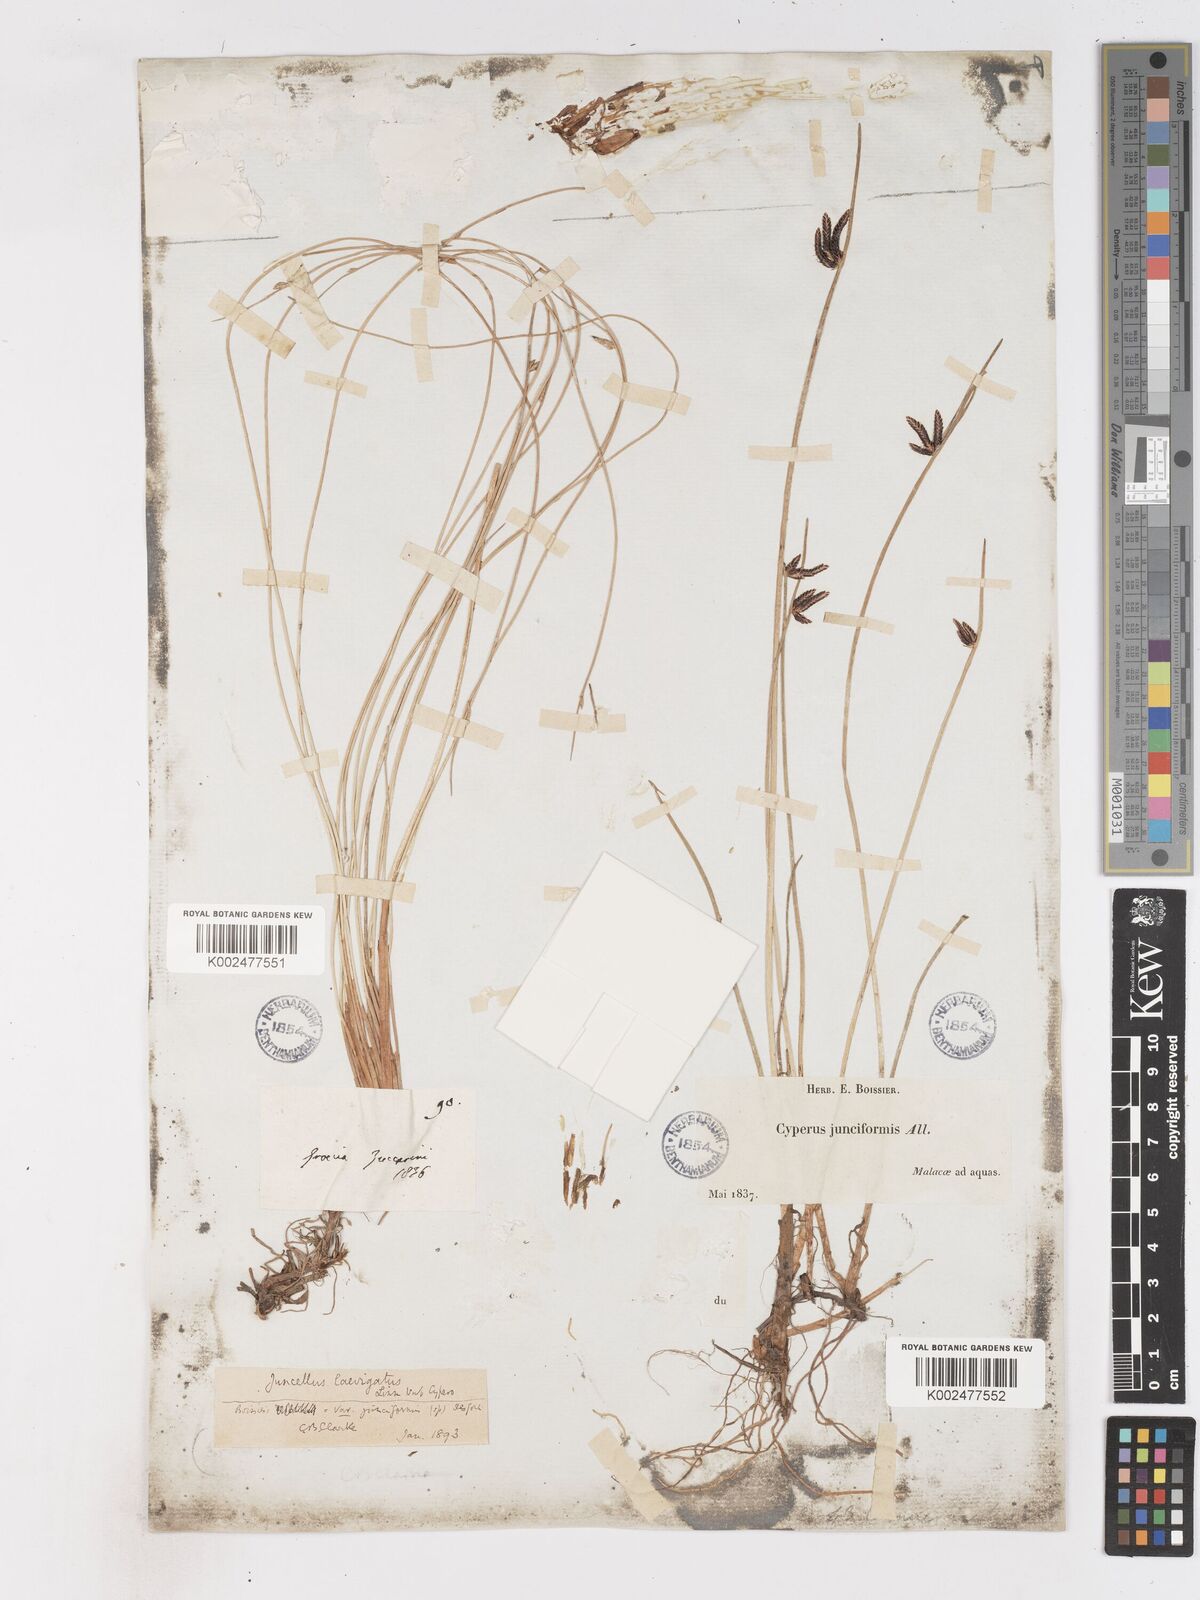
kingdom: Plantae
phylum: Tracheophyta
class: Liliopsida
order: Poales
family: Cyperaceae
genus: Cyperus
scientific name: Cyperus laevigatus
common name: Smooth flat sedge
